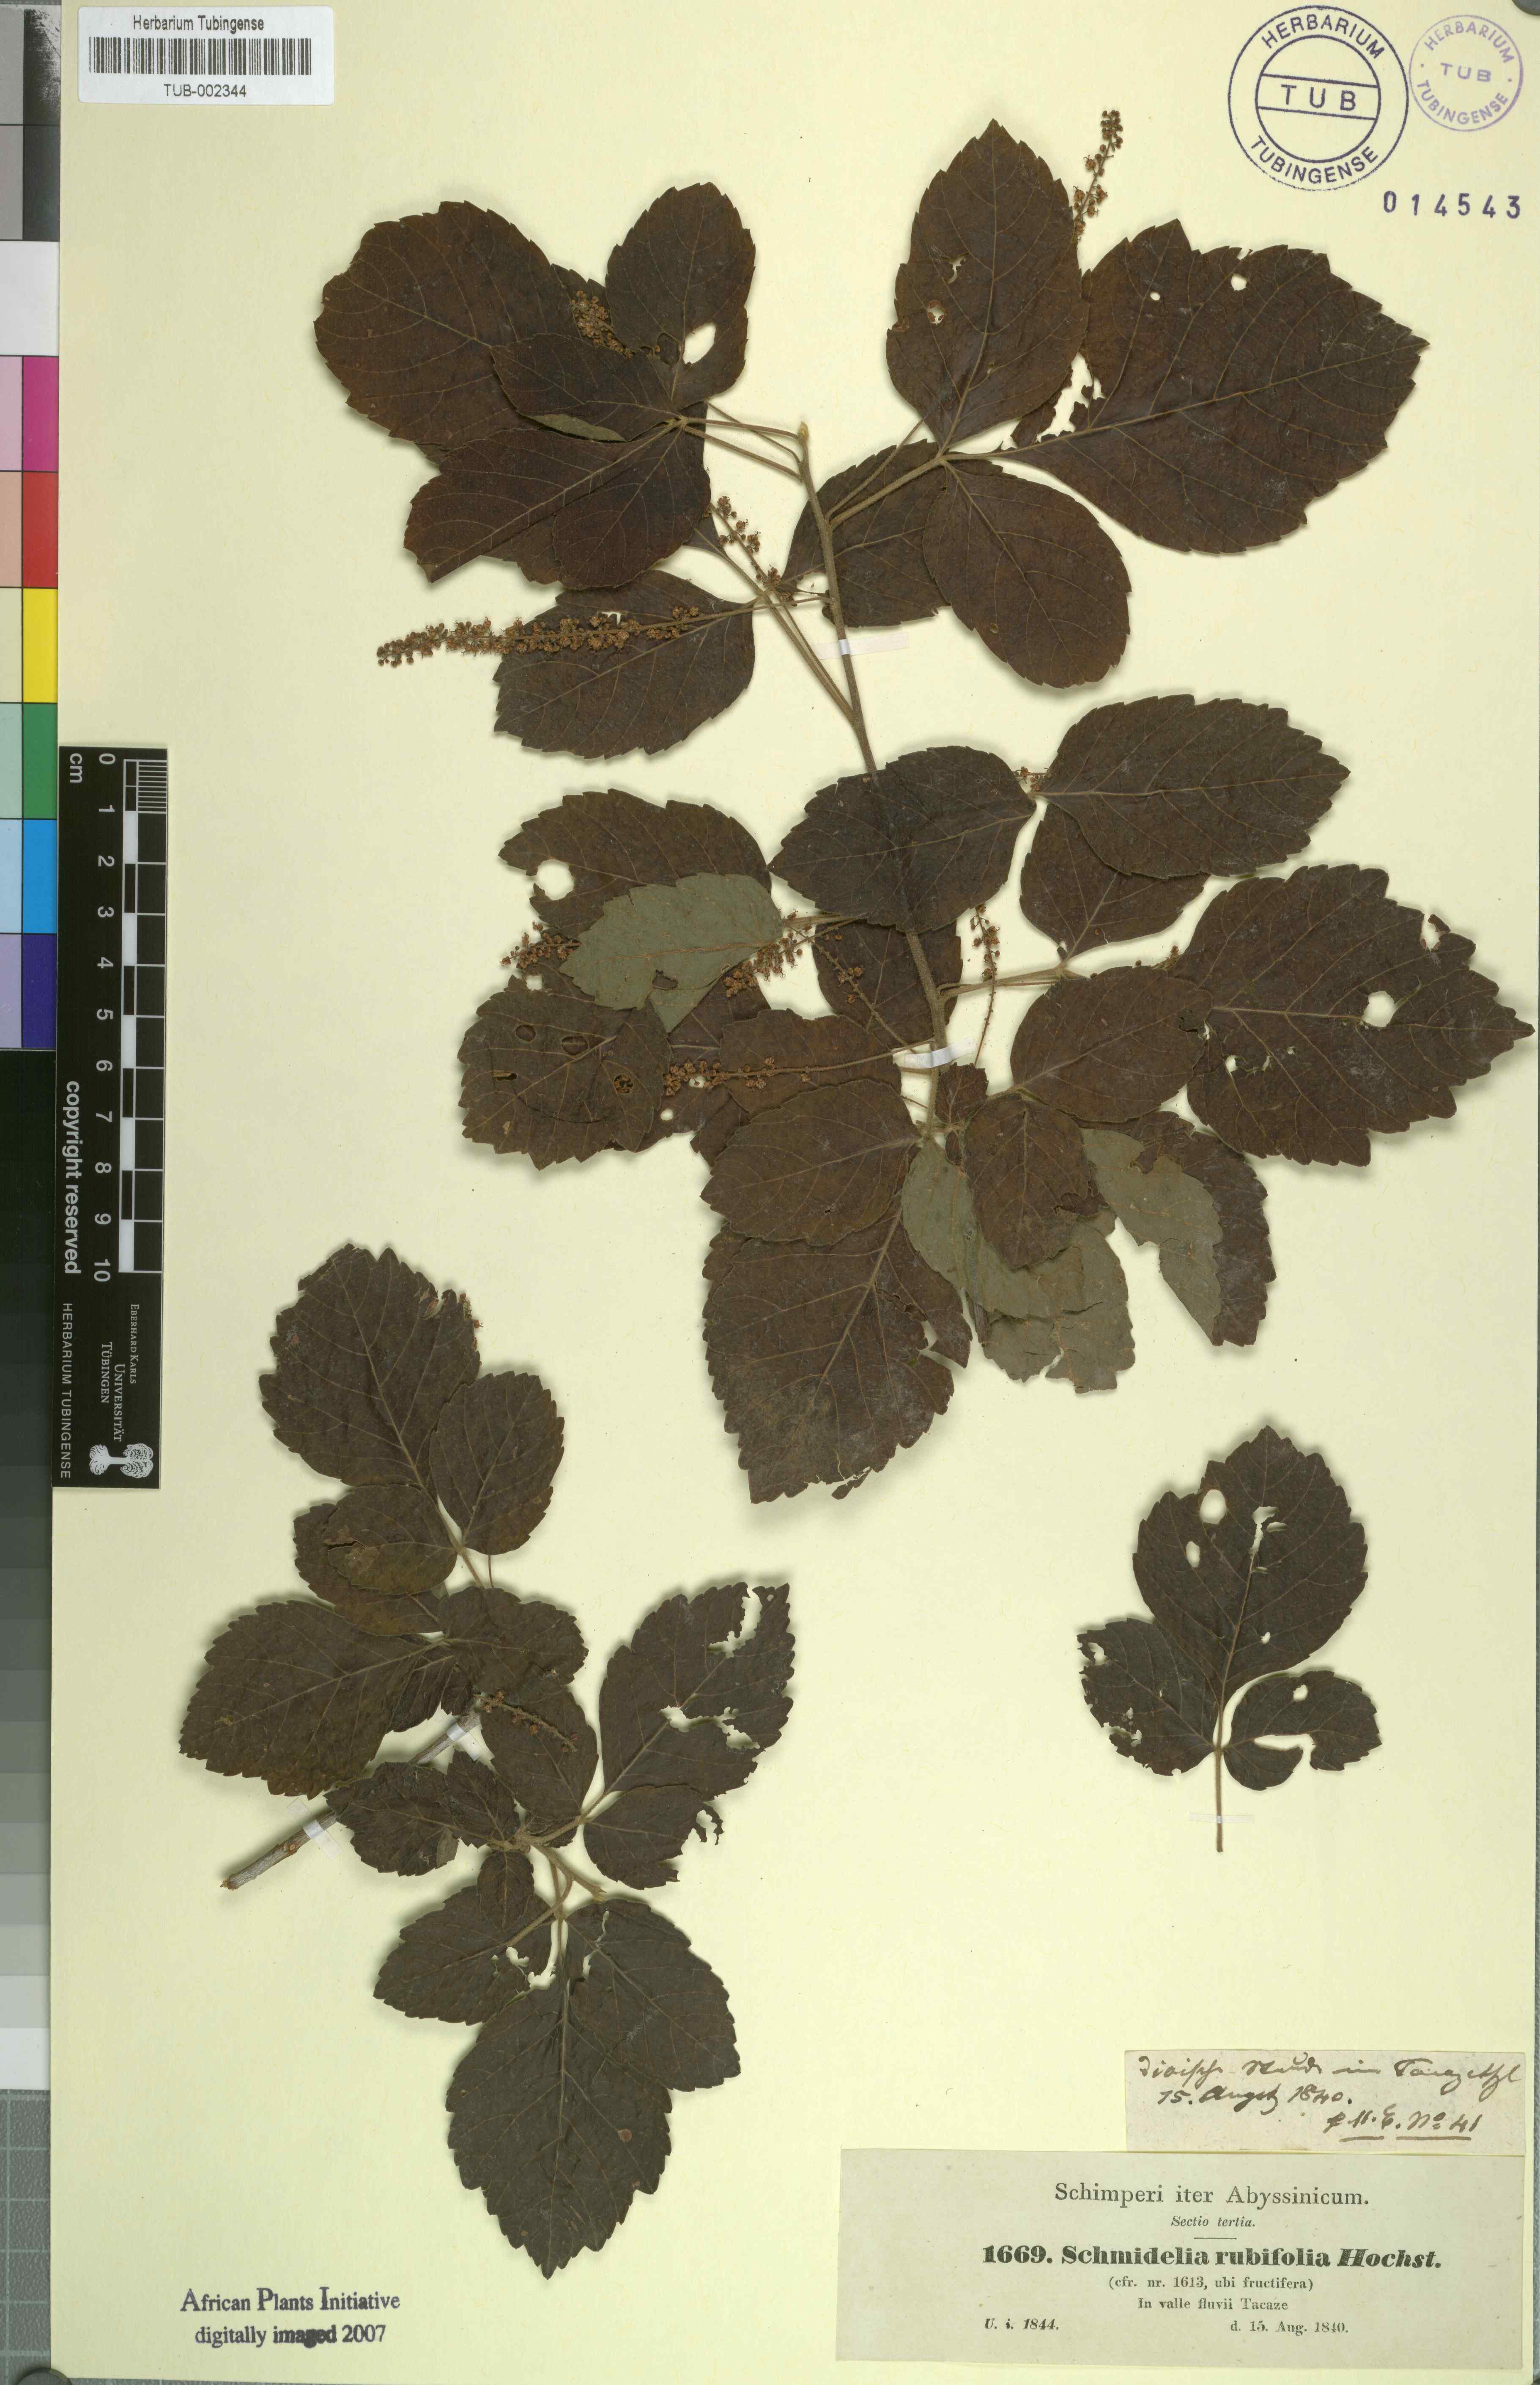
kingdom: Plantae
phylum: Tracheophyta
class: Magnoliopsida
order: Sapindales
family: Sapindaceae
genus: Allophylus
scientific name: Allophylus rubifolius
